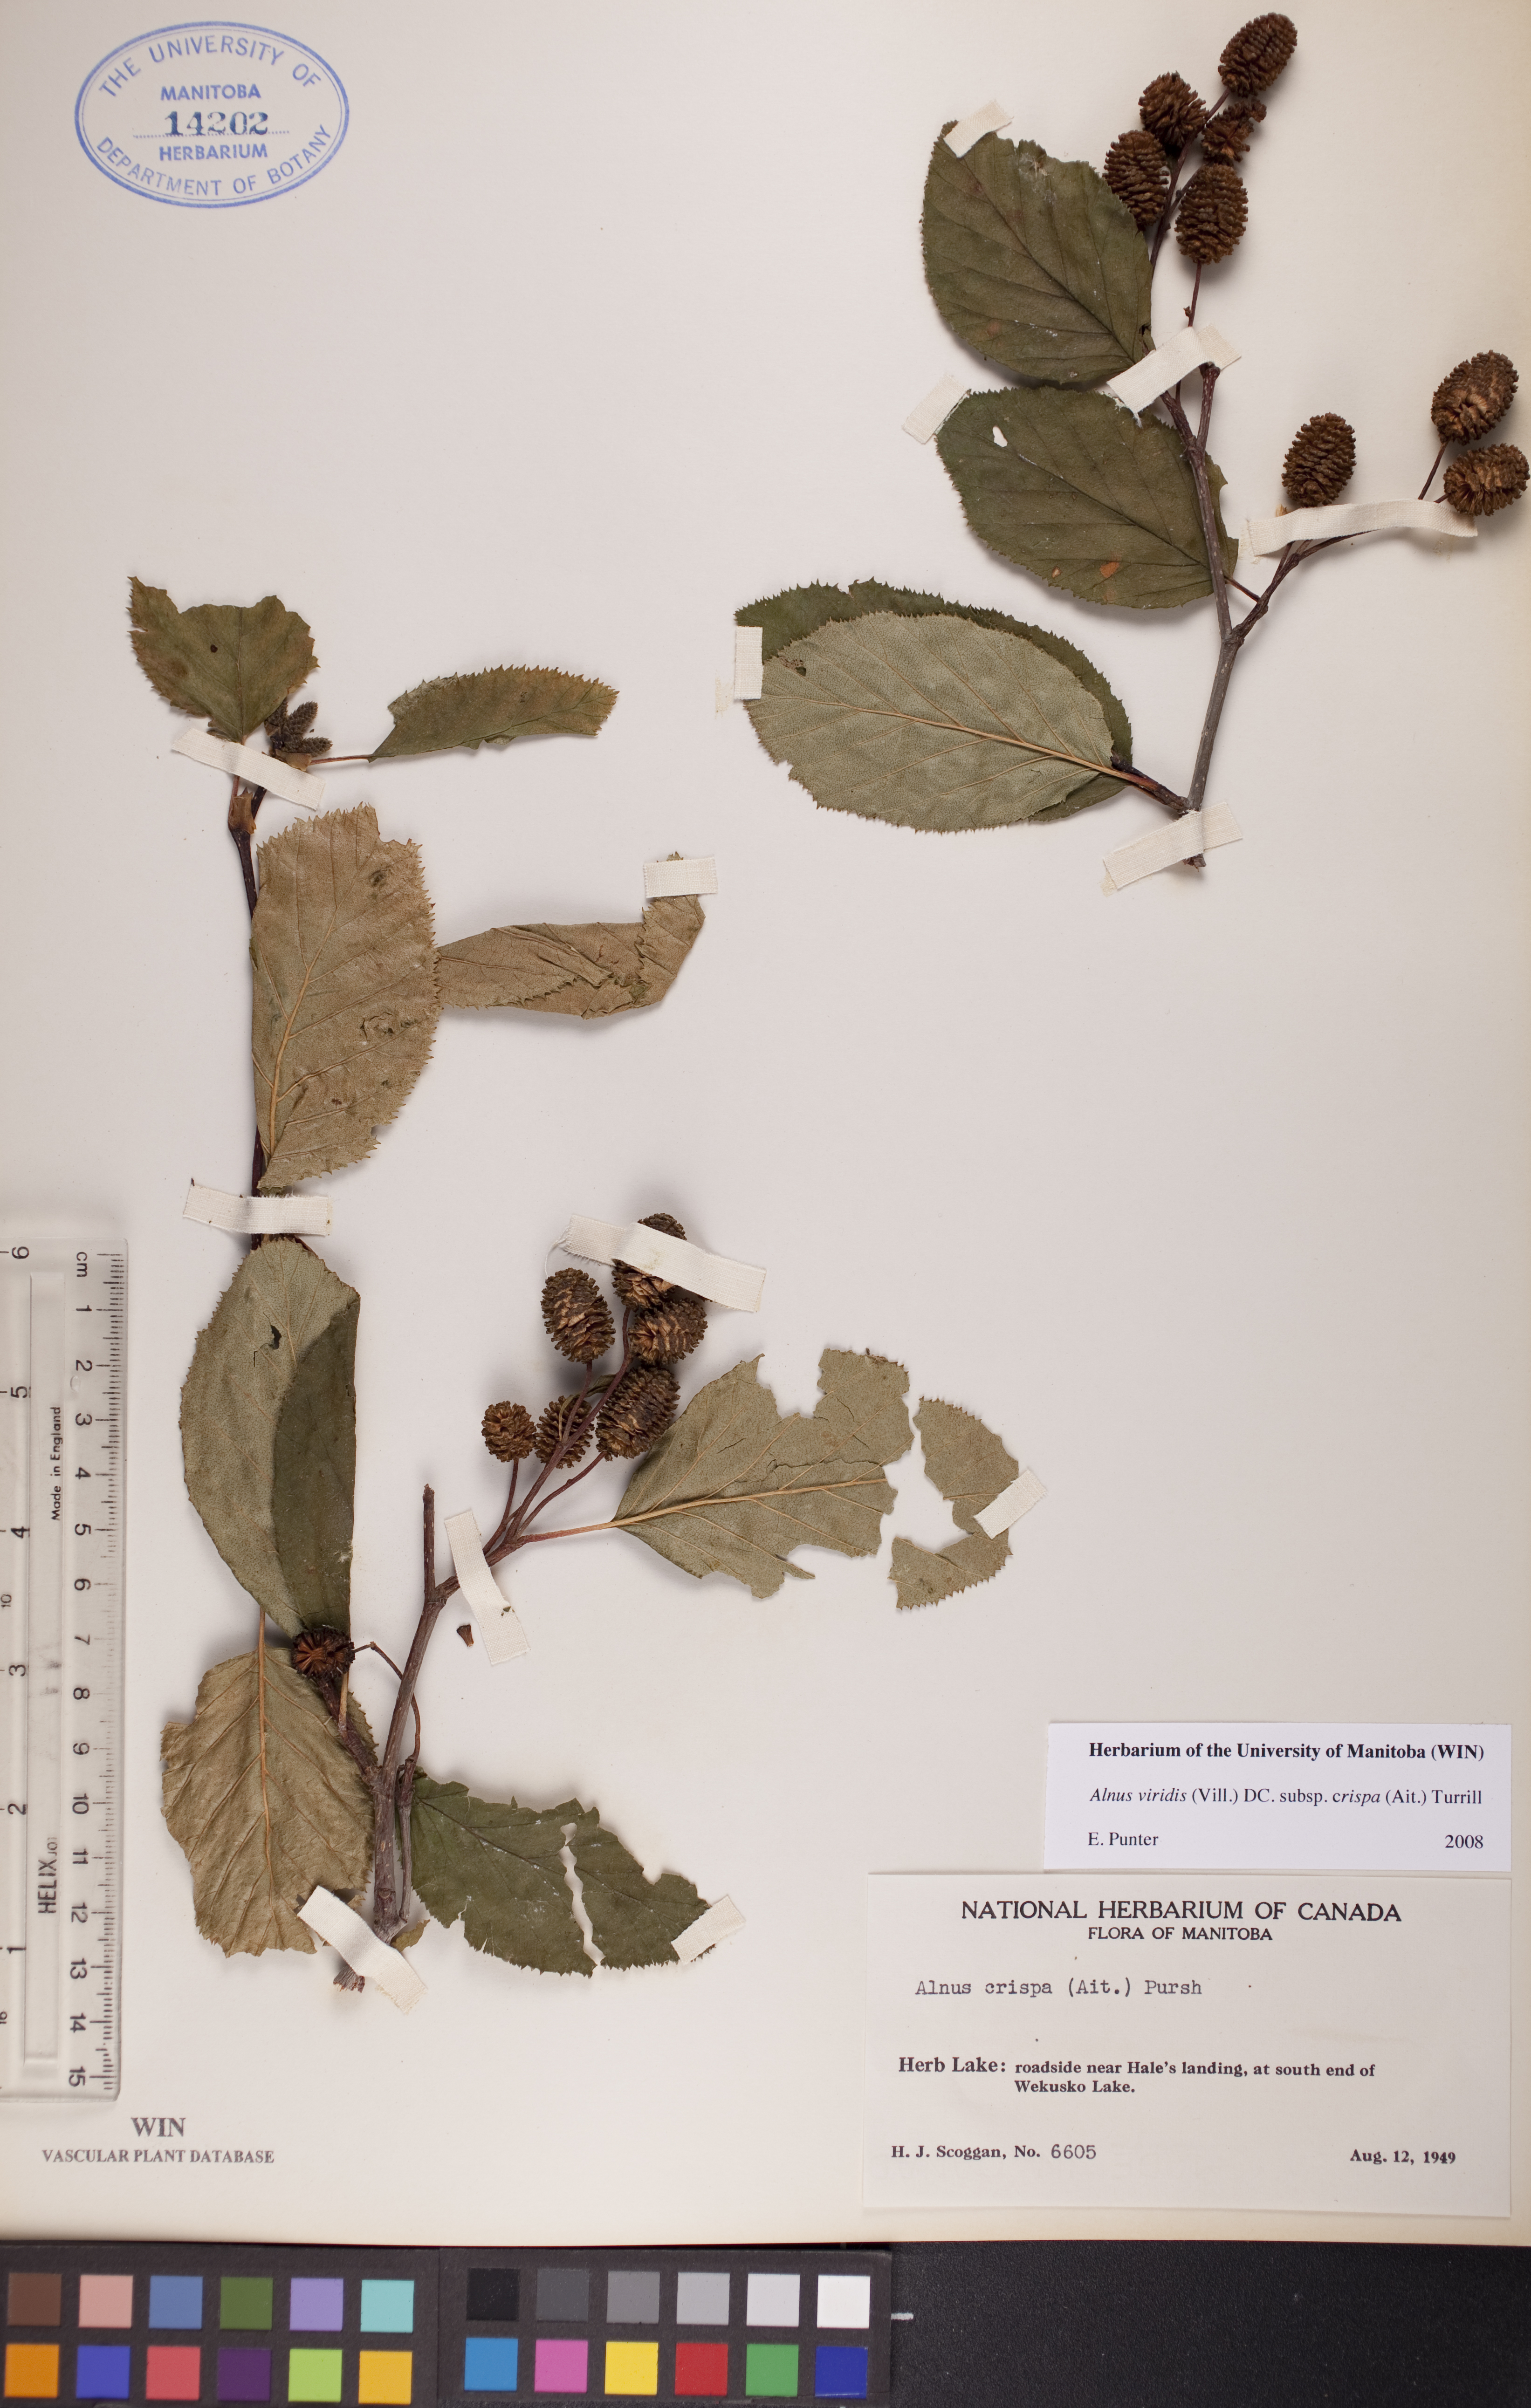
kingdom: Plantae
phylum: Tracheophyta
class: Magnoliopsida
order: Fagales
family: Betulaceae
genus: Alnus
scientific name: Alnus alnobetula
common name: Green alder
